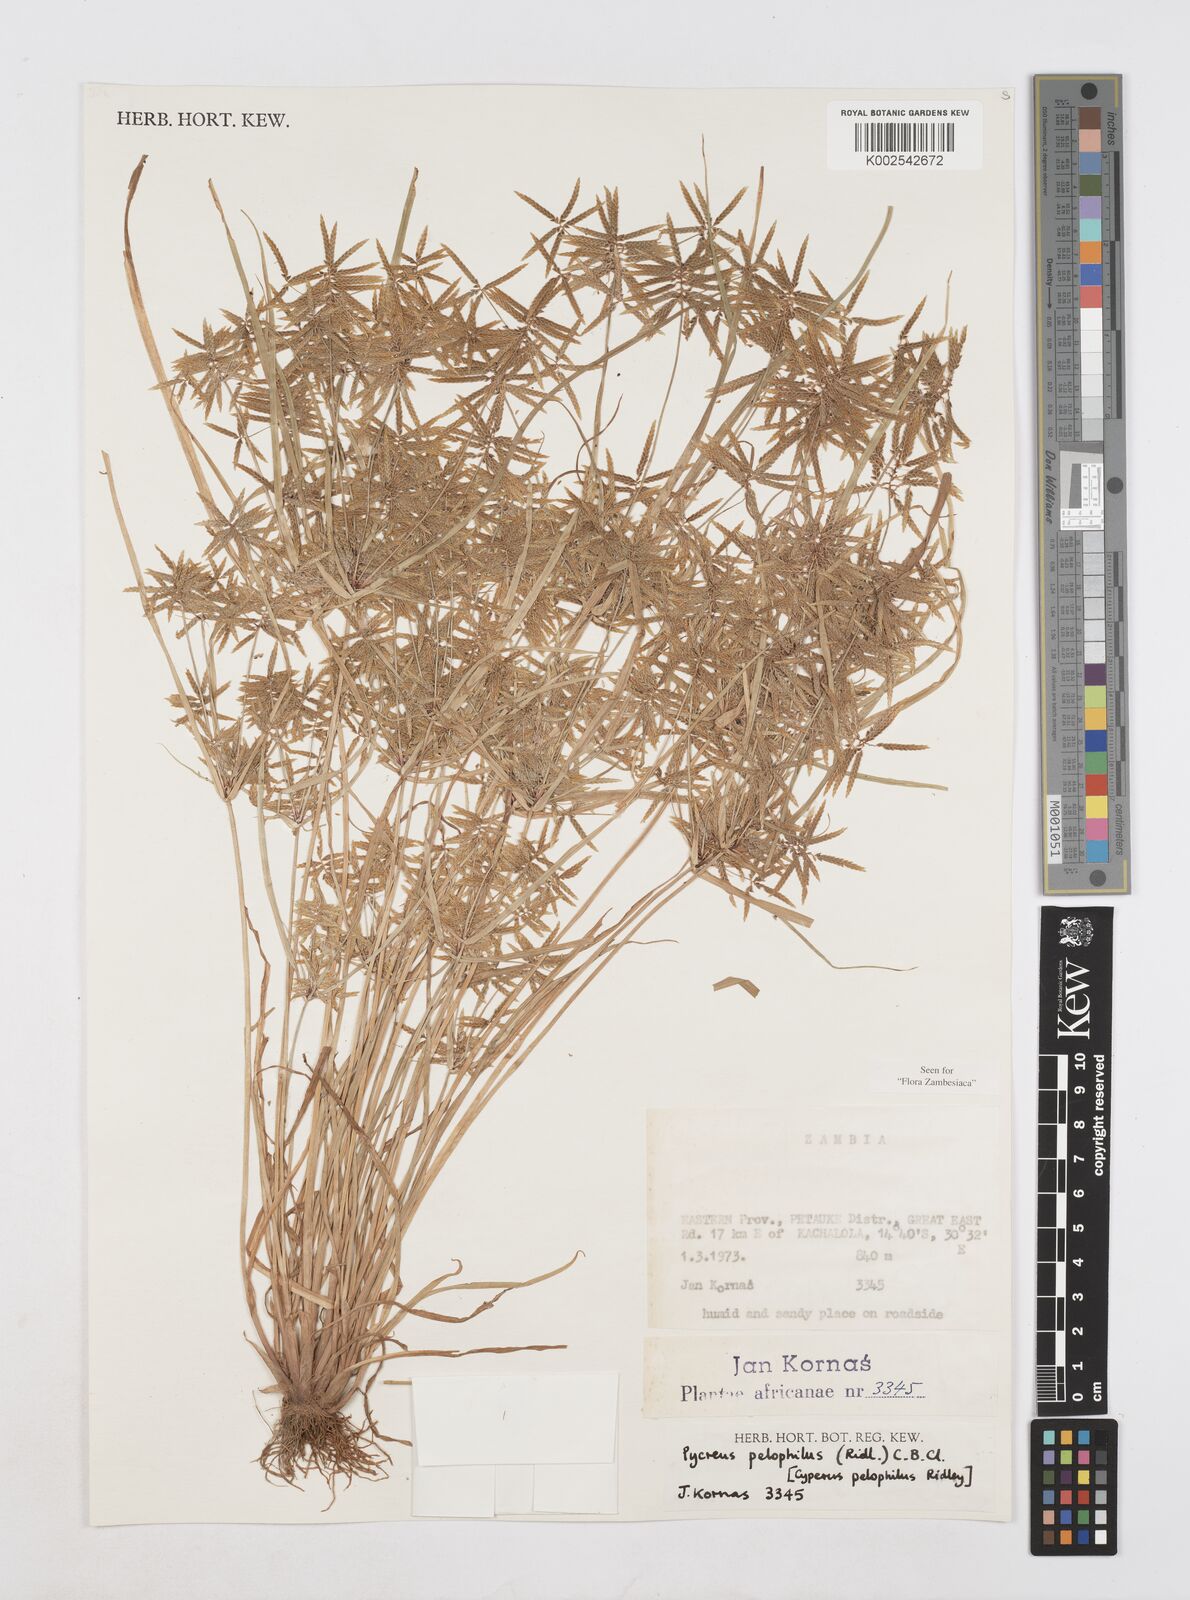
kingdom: Plantae
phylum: Tracheophyta
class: Liliopsida
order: Poales
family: Cyperaceae
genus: Cyperus
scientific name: Cyperus pelophilus
